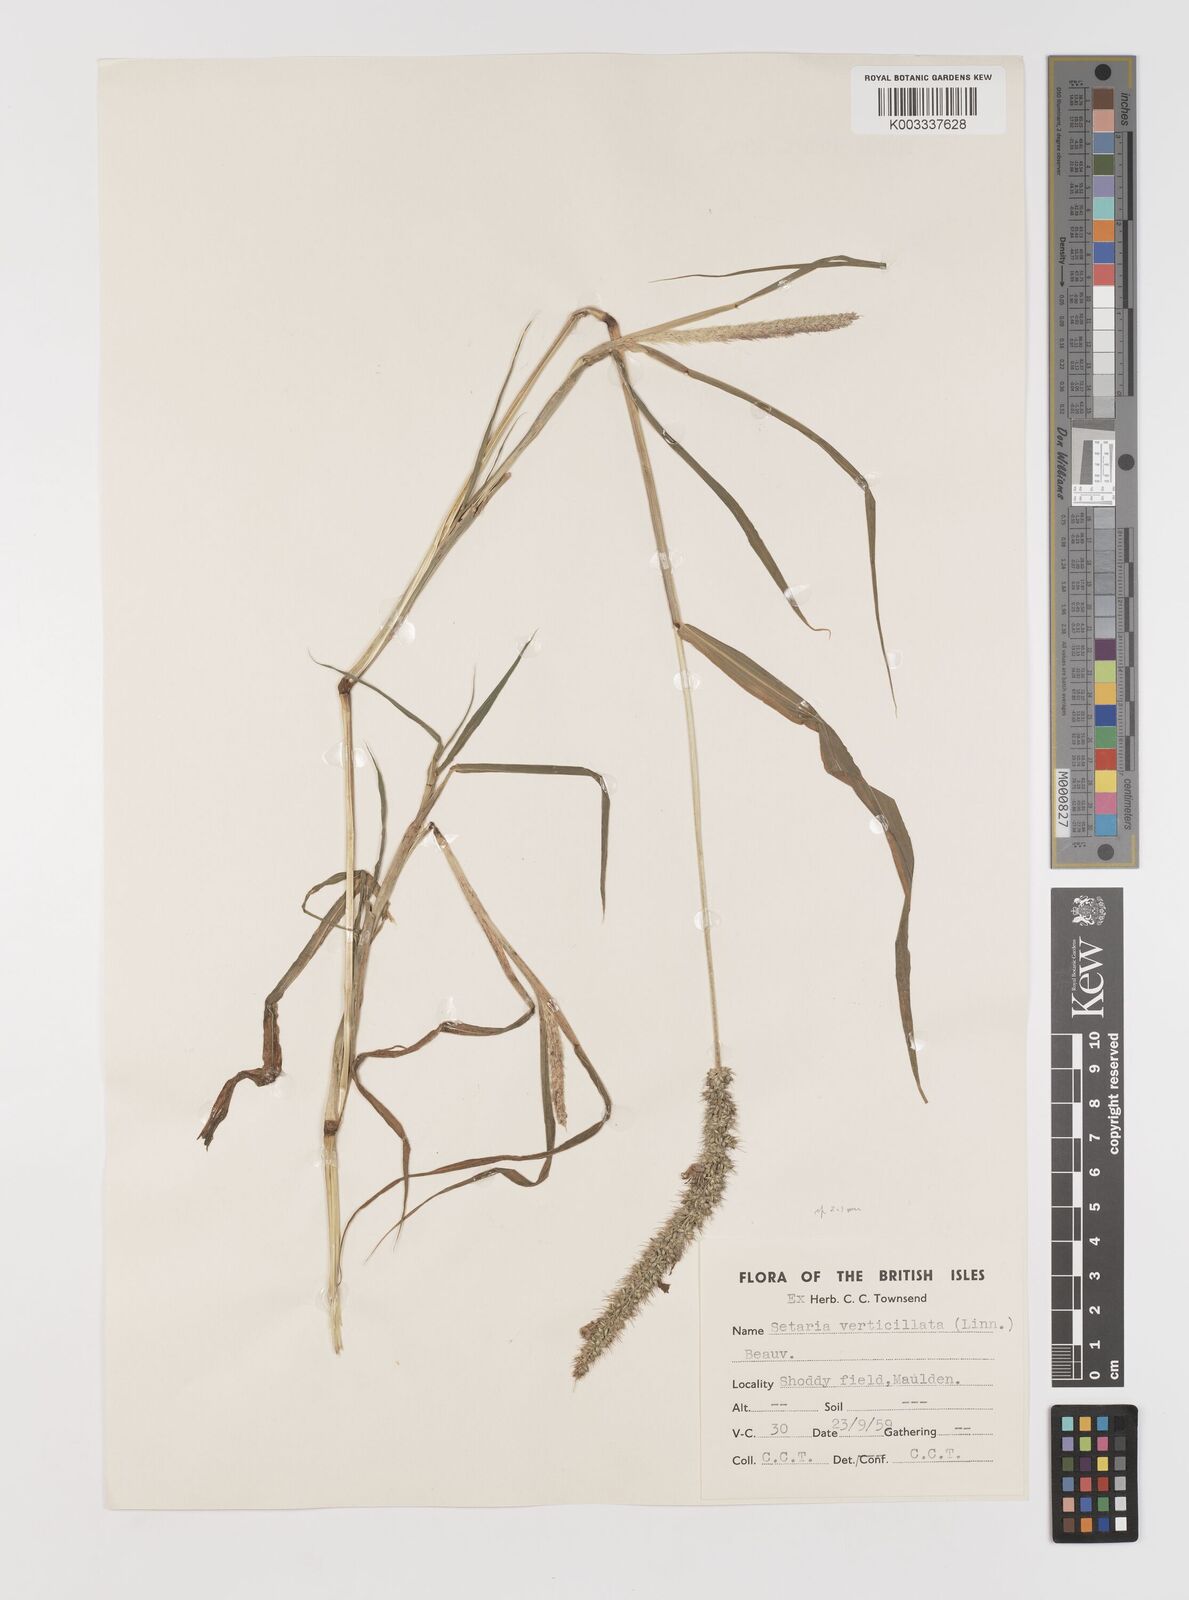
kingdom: Plantae
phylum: Tracheophyta
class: Liliopsida
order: Poales
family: Poaceae
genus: Setaria
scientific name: Setaria verticillata
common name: Hooked bristlegrass
